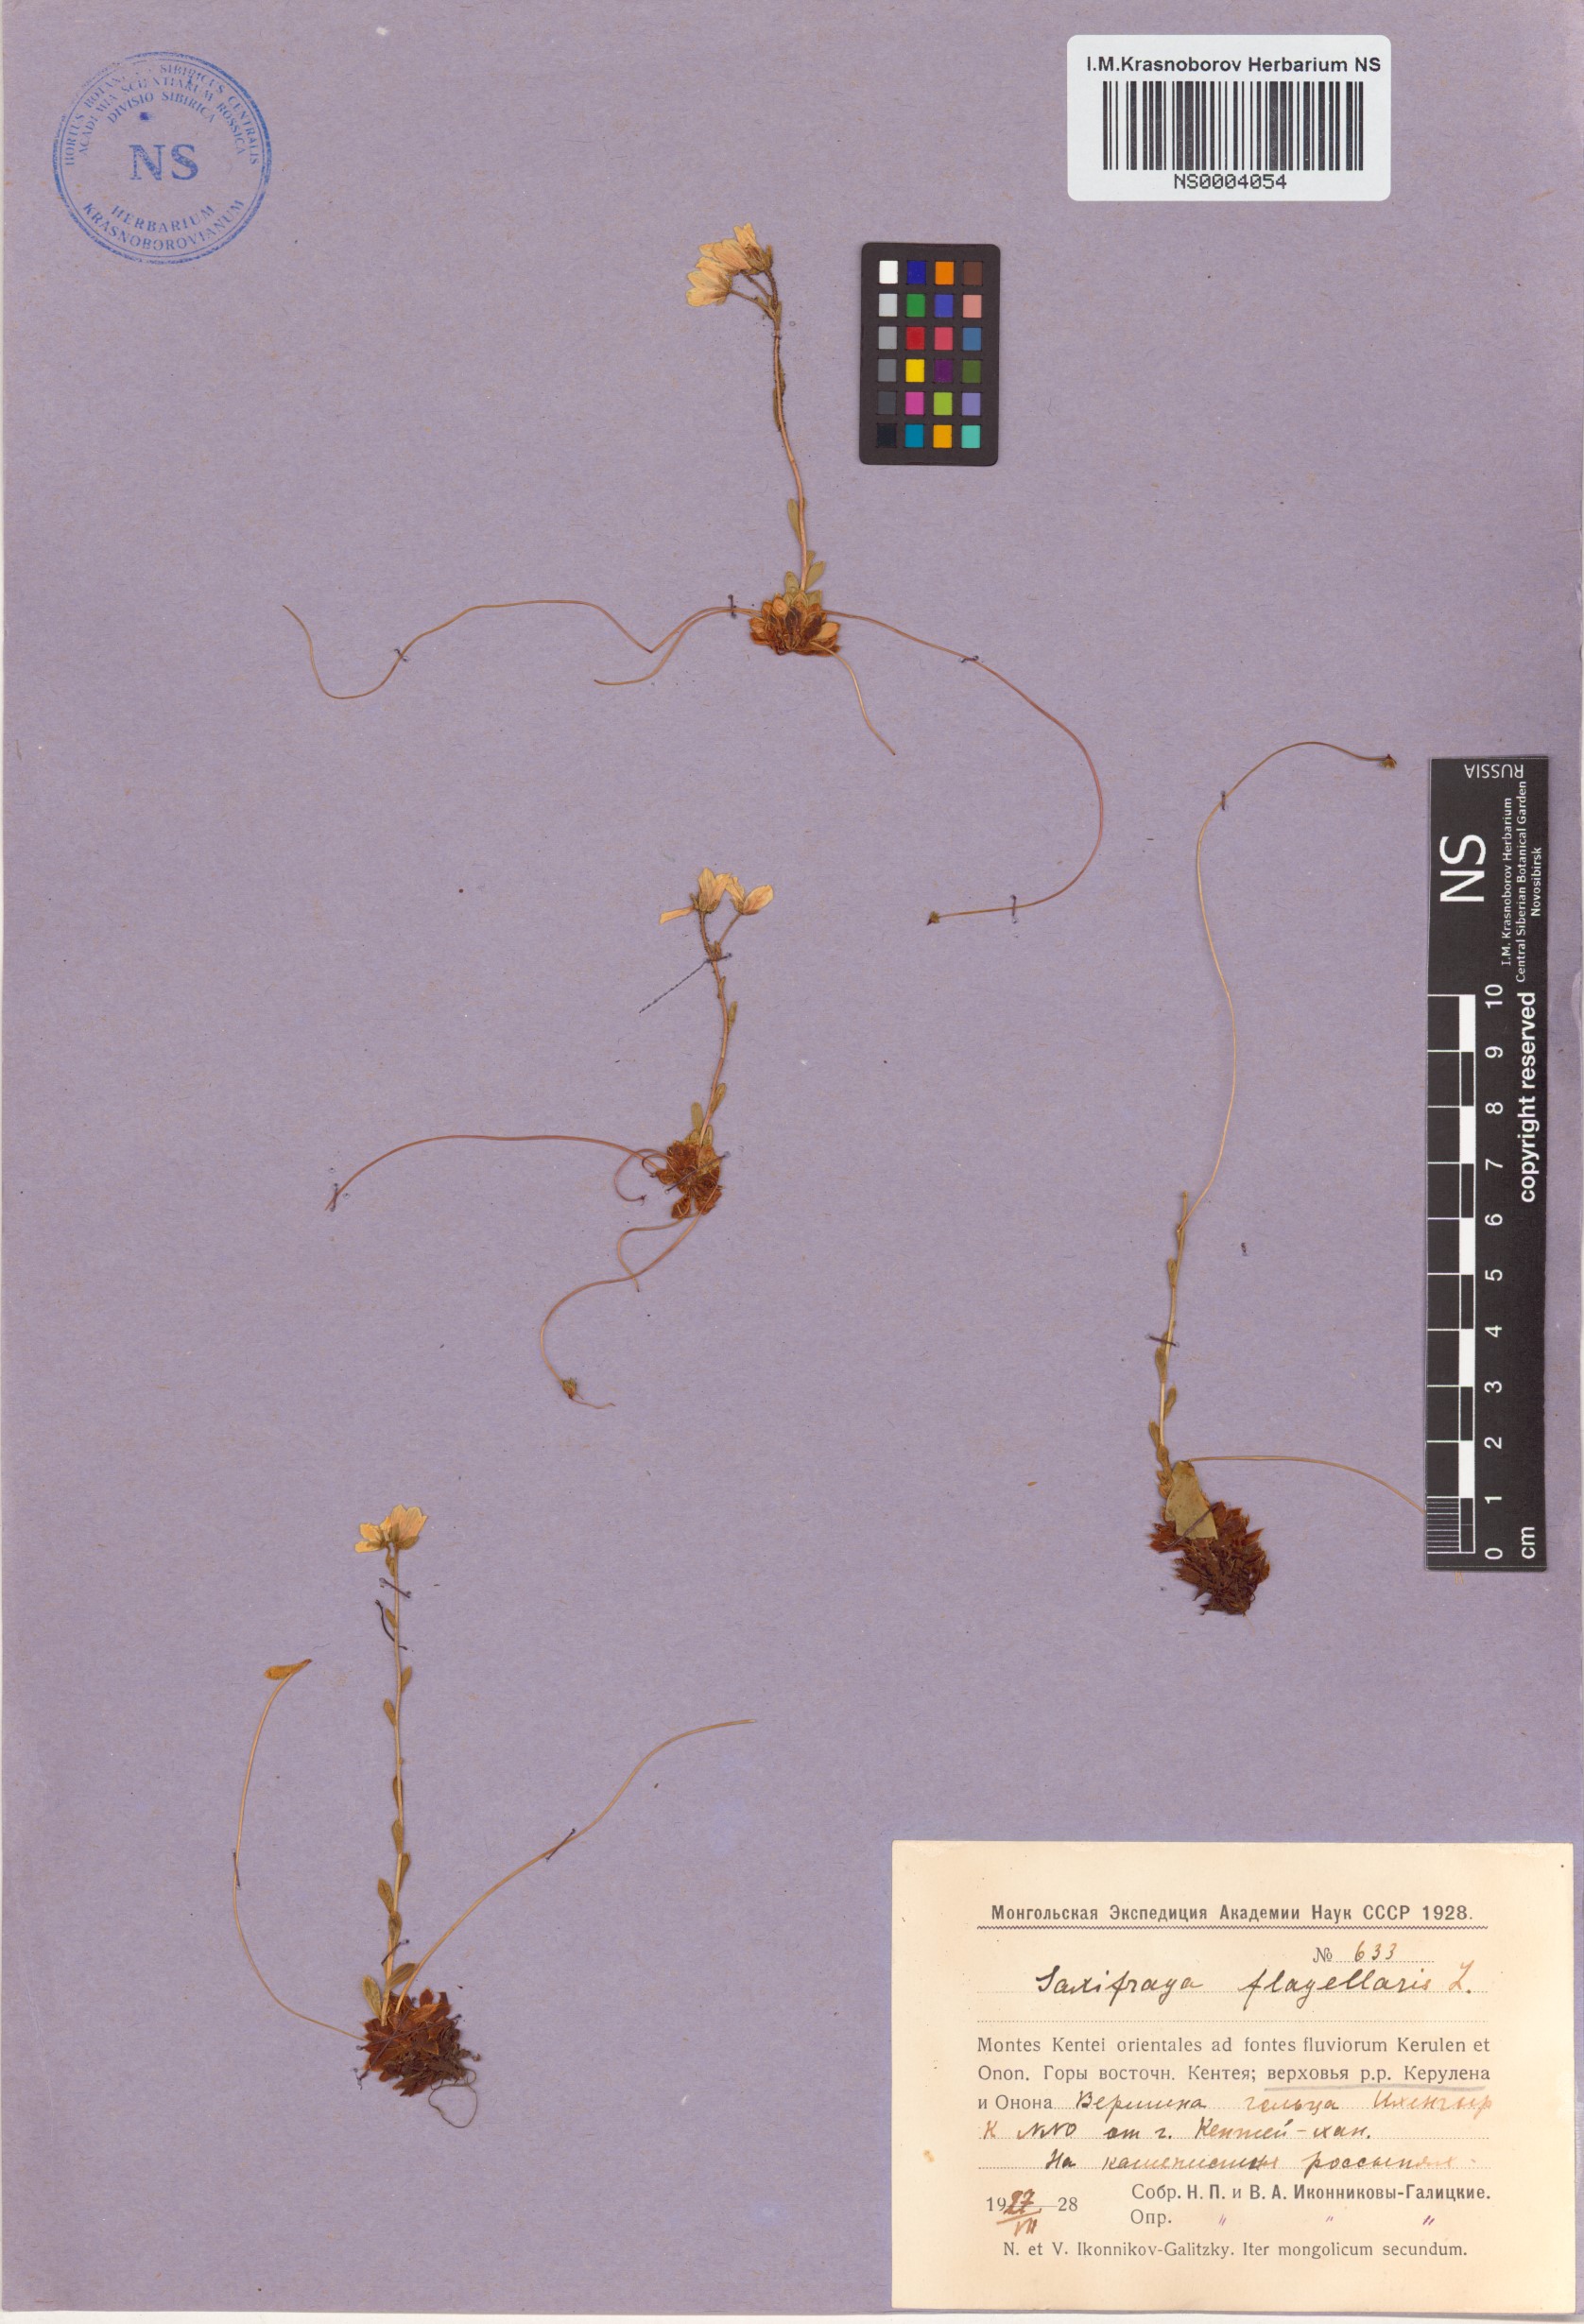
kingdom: Plantae
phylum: Tracheophyta
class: Magnoliopsida
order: Saxifragales
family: Saxifragaceae
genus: Saxifraga
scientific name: Saxifraga flagellaris
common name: Spider saxifrage
